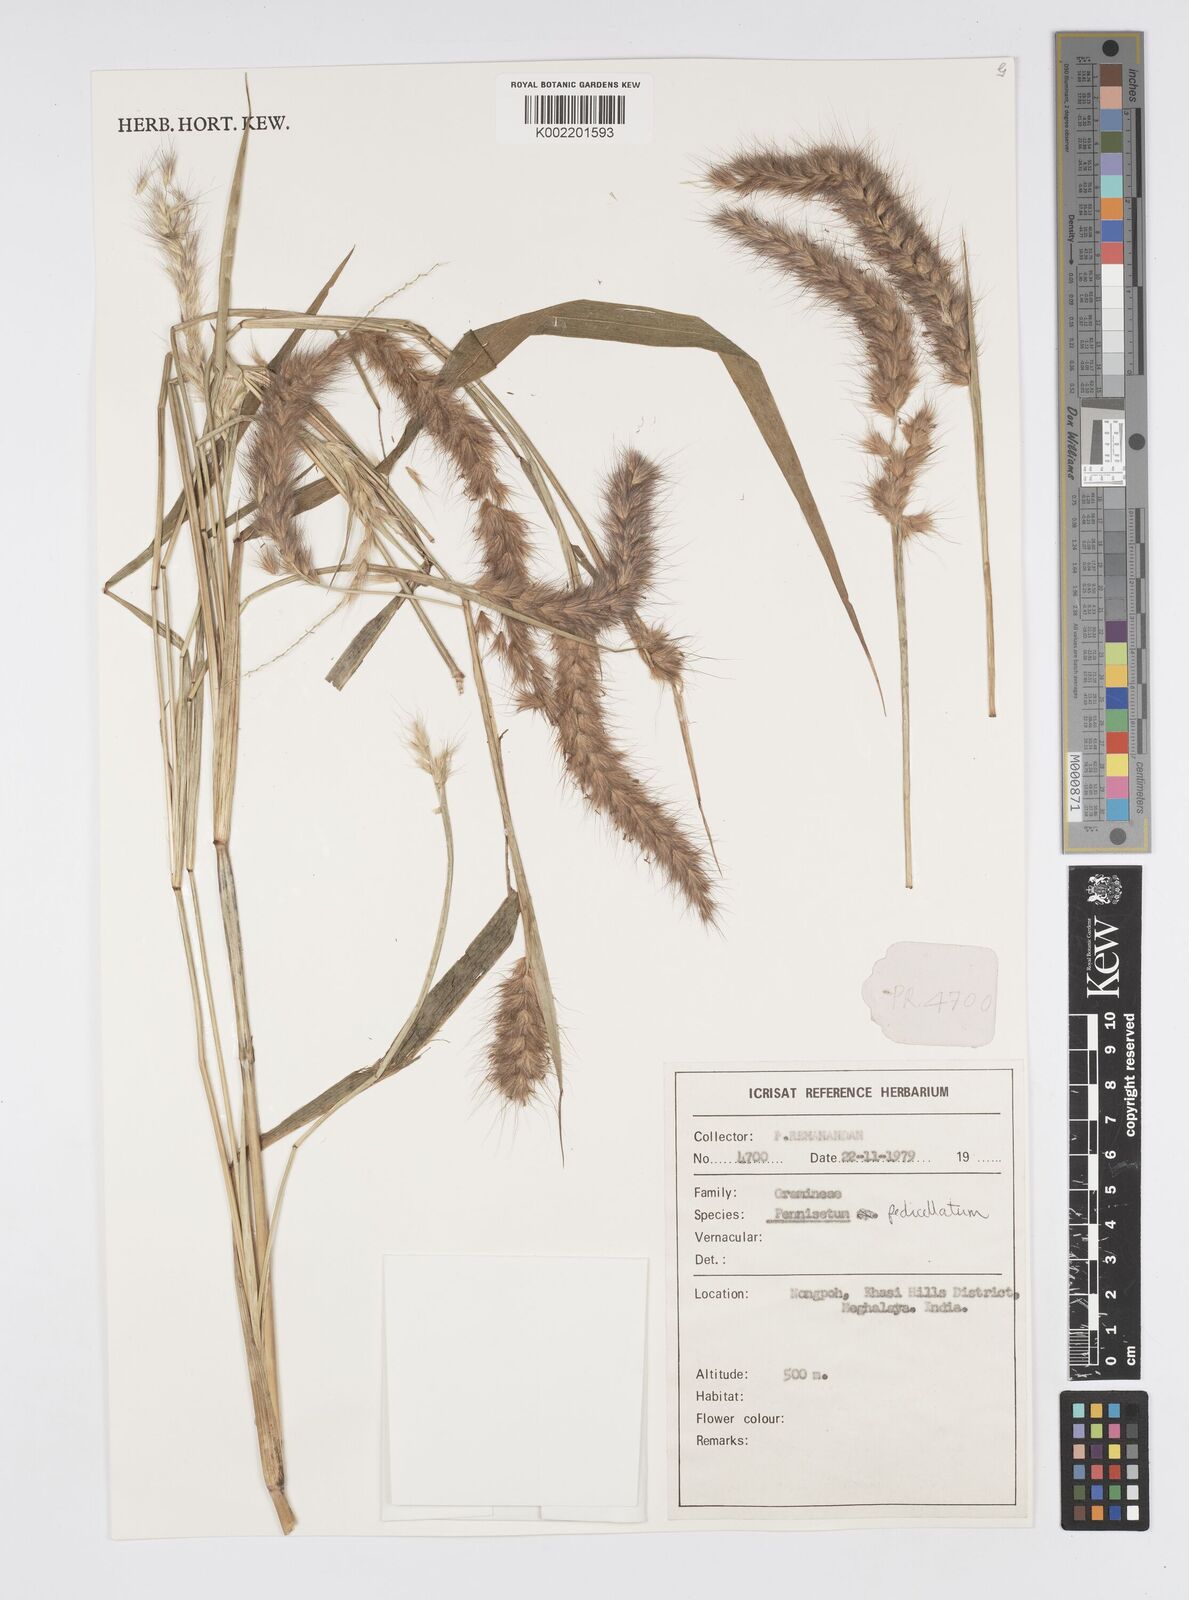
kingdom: Plantae
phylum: Tracheophyta
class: Liliopsida
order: Poales
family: Poaceae
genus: Cenchrus
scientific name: Cenchrus pedicellatus
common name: Hairy fountain grass
